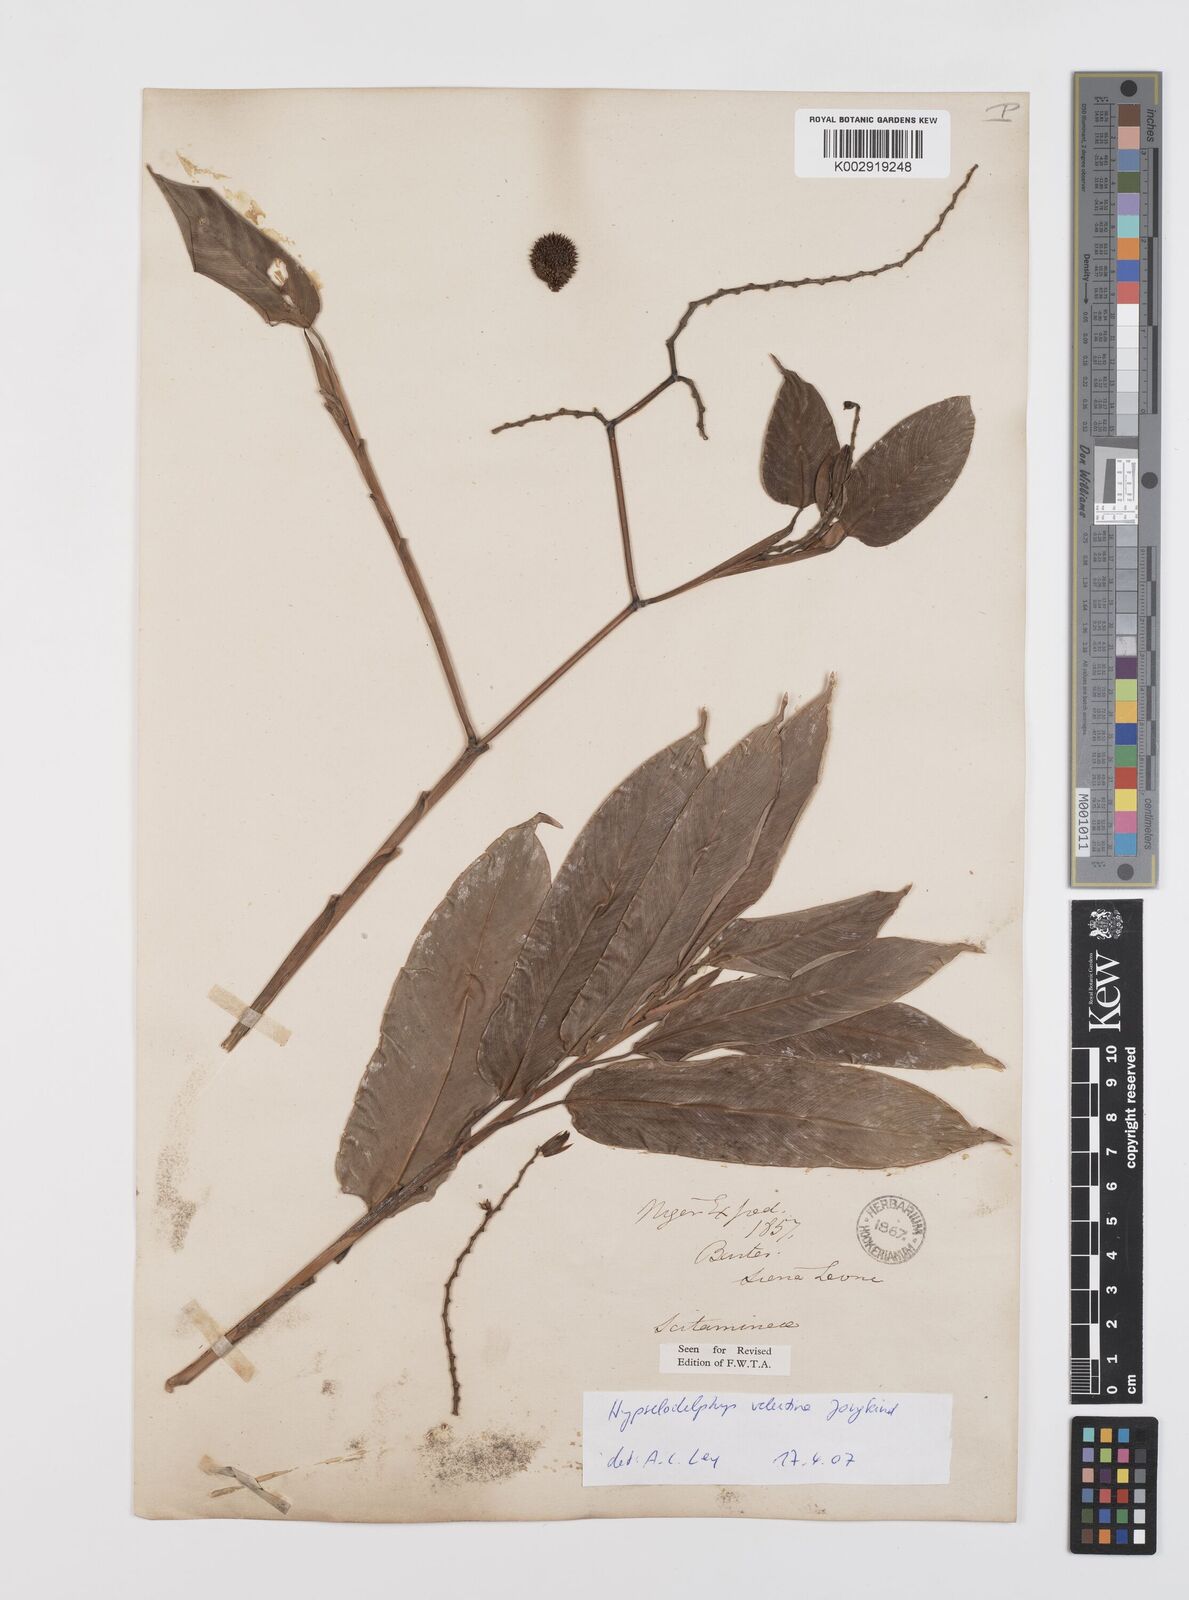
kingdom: Plantae
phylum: Tracheophyta
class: Liliopsida
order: Zingiberales
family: Marantaceae
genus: Hypselodelphys
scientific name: Hypselodelphys velutina
